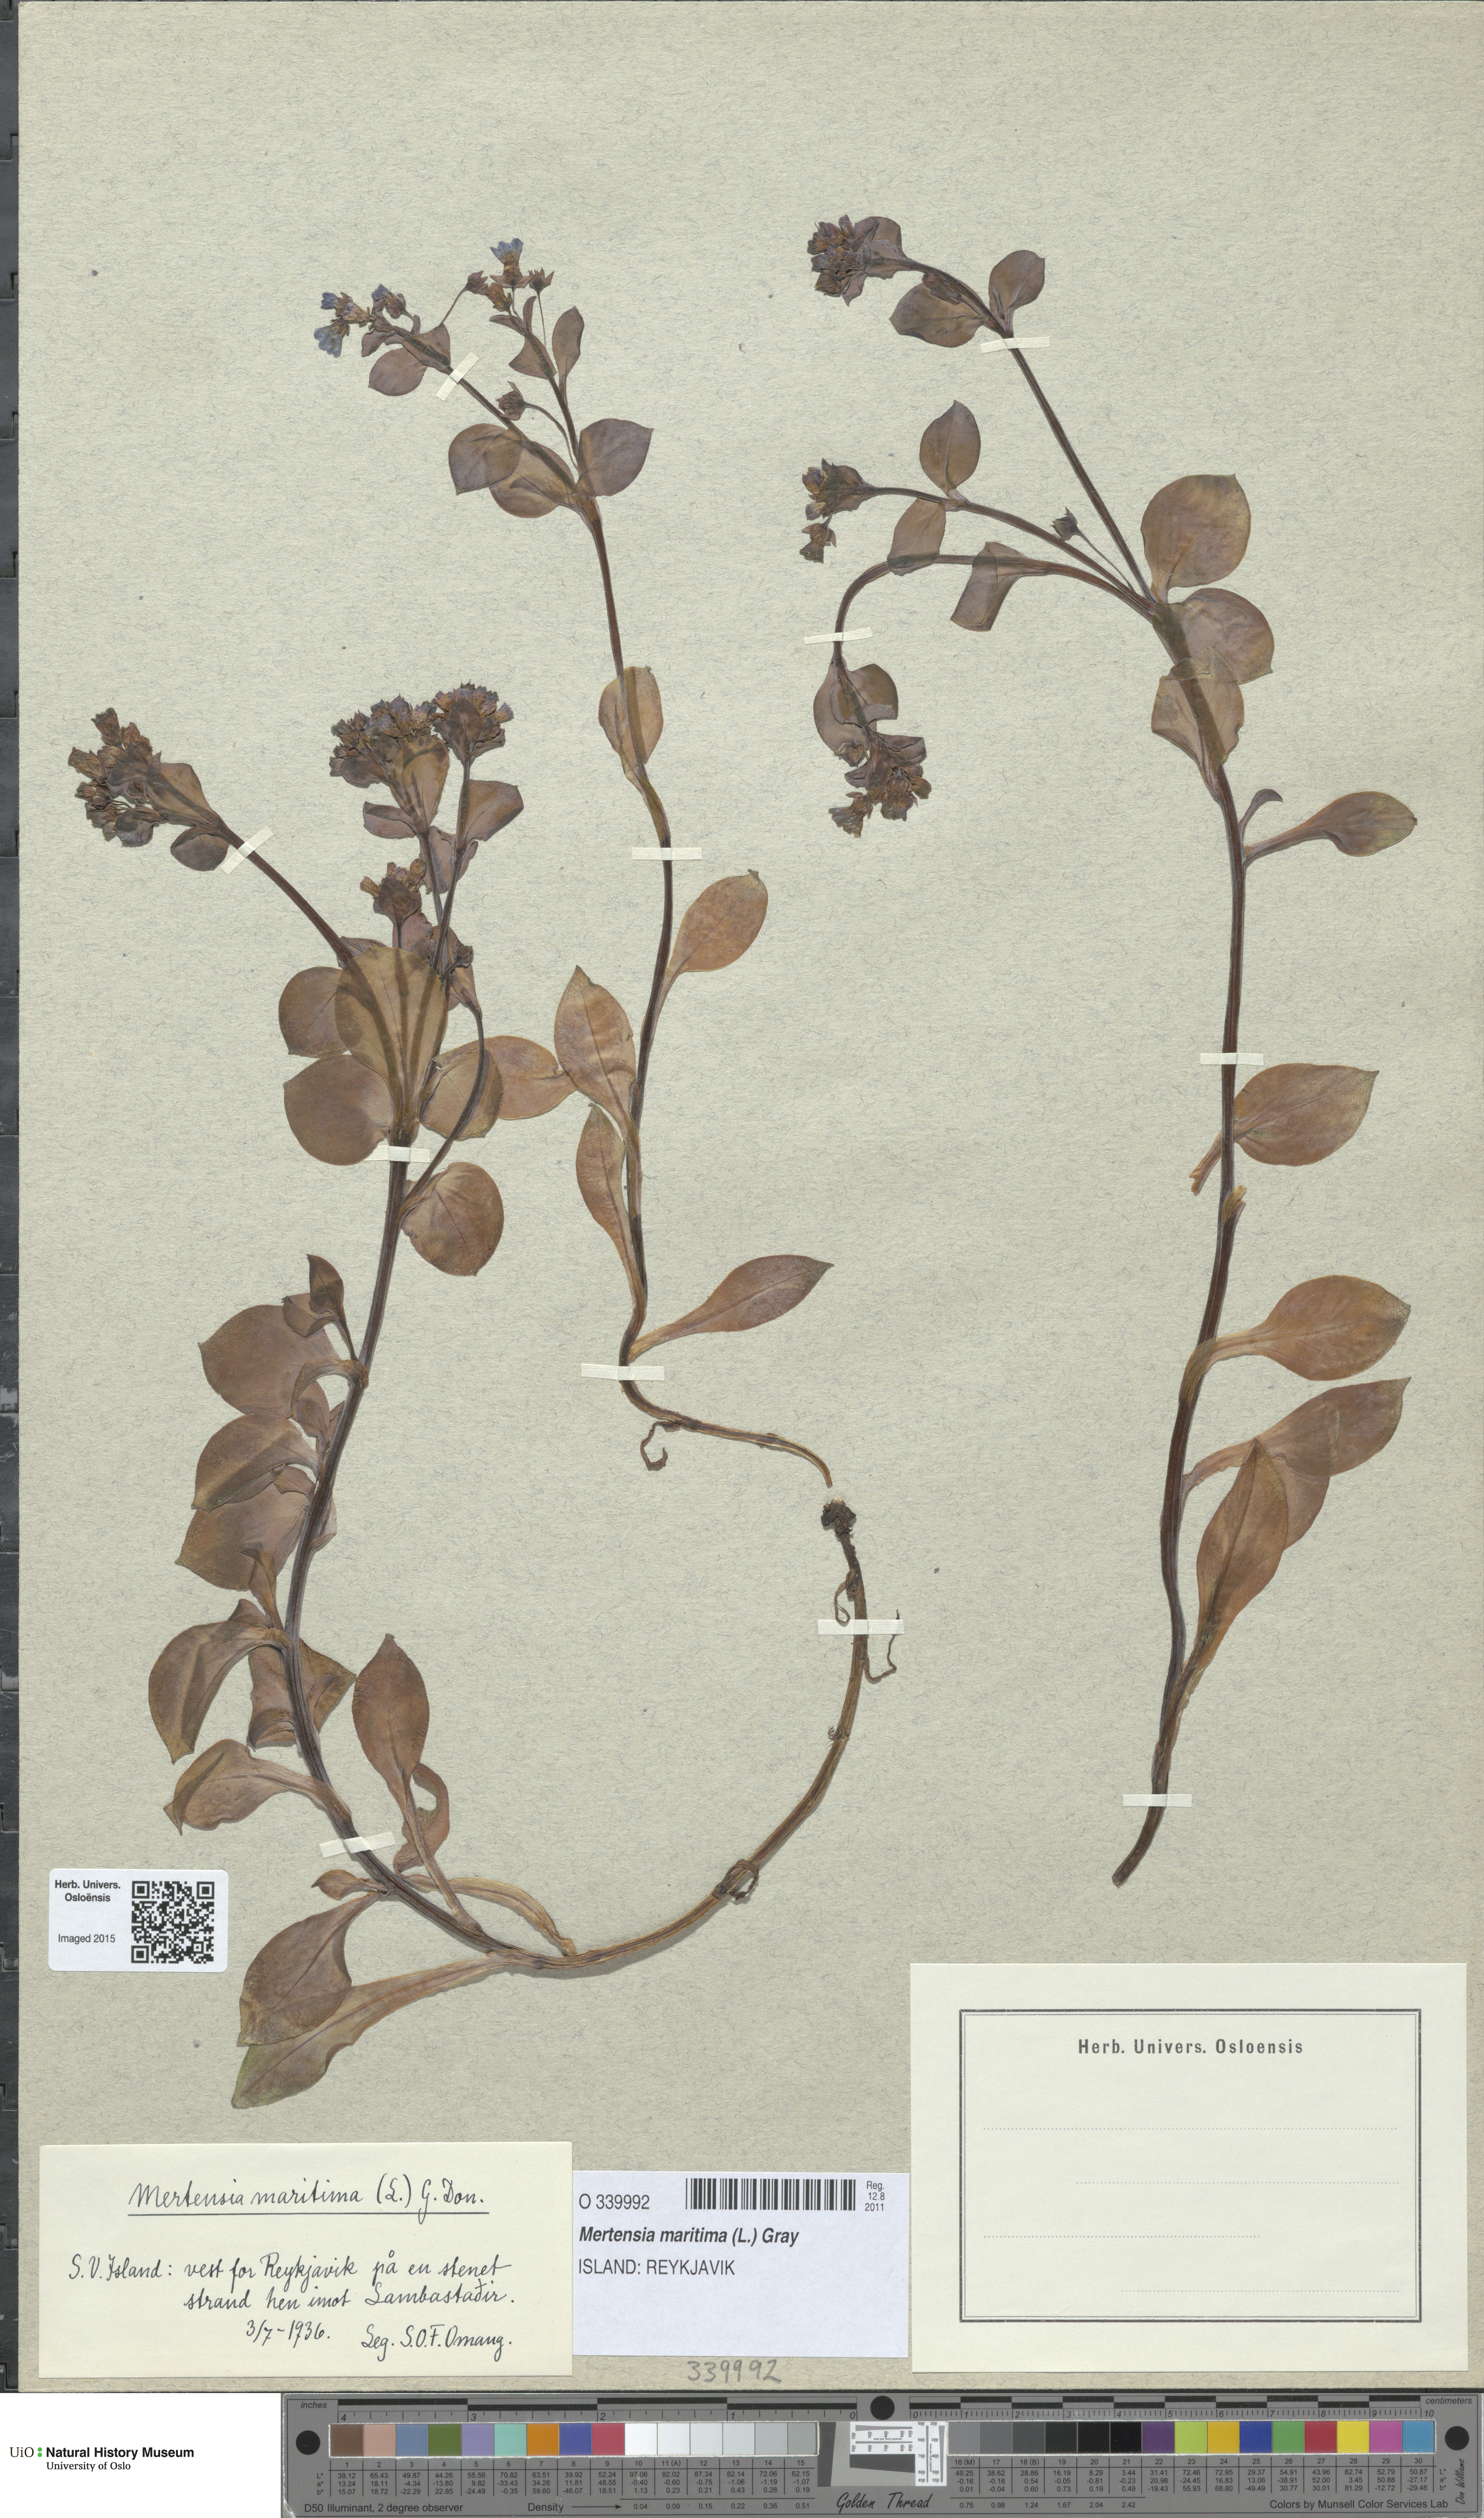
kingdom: Plantae
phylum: Tracheophyta
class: Magnoliopsida
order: Boraginales
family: Boraginaceae
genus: Mertensia
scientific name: Mertensia maritima
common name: Oysterplant
